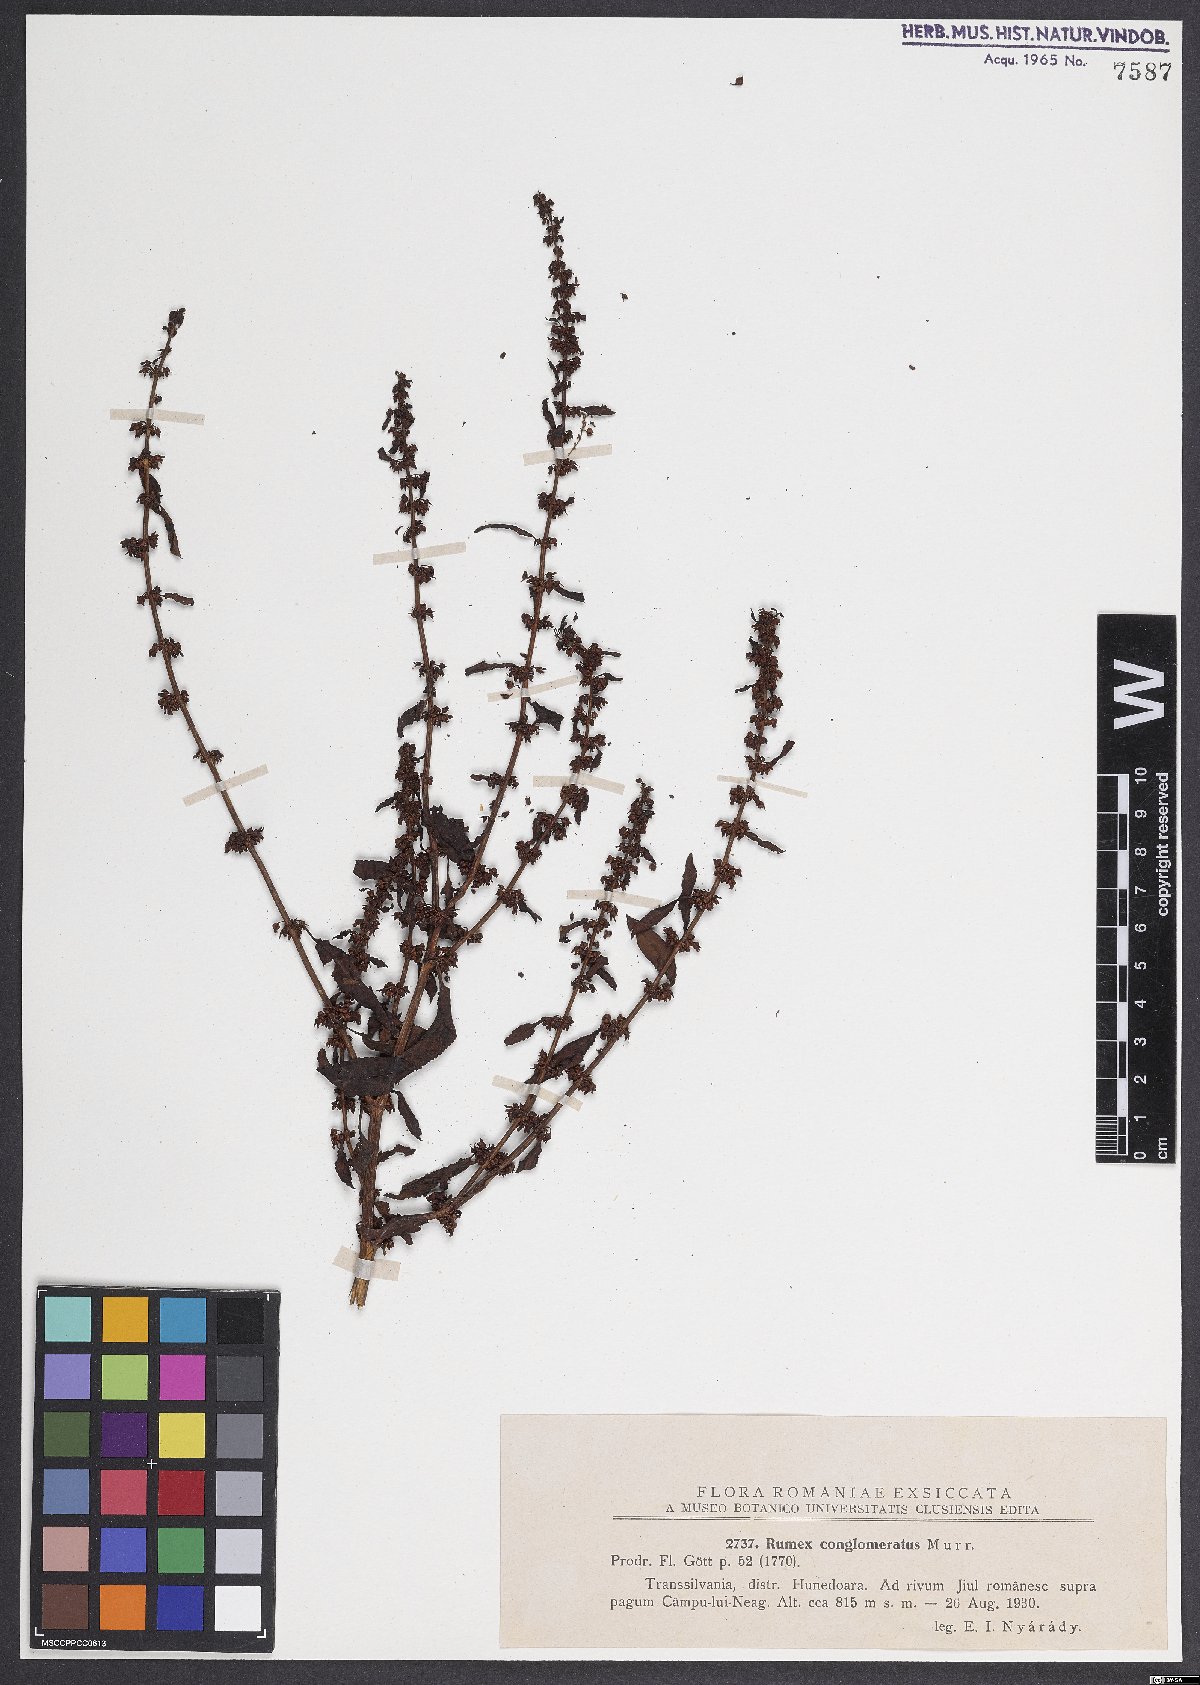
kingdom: Plantae
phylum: Tracheophyta
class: Magnoliopsida
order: Caryophyllales
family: Polygonaceae
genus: Rumex
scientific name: Rumex conglomeratus
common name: Clustered dock
